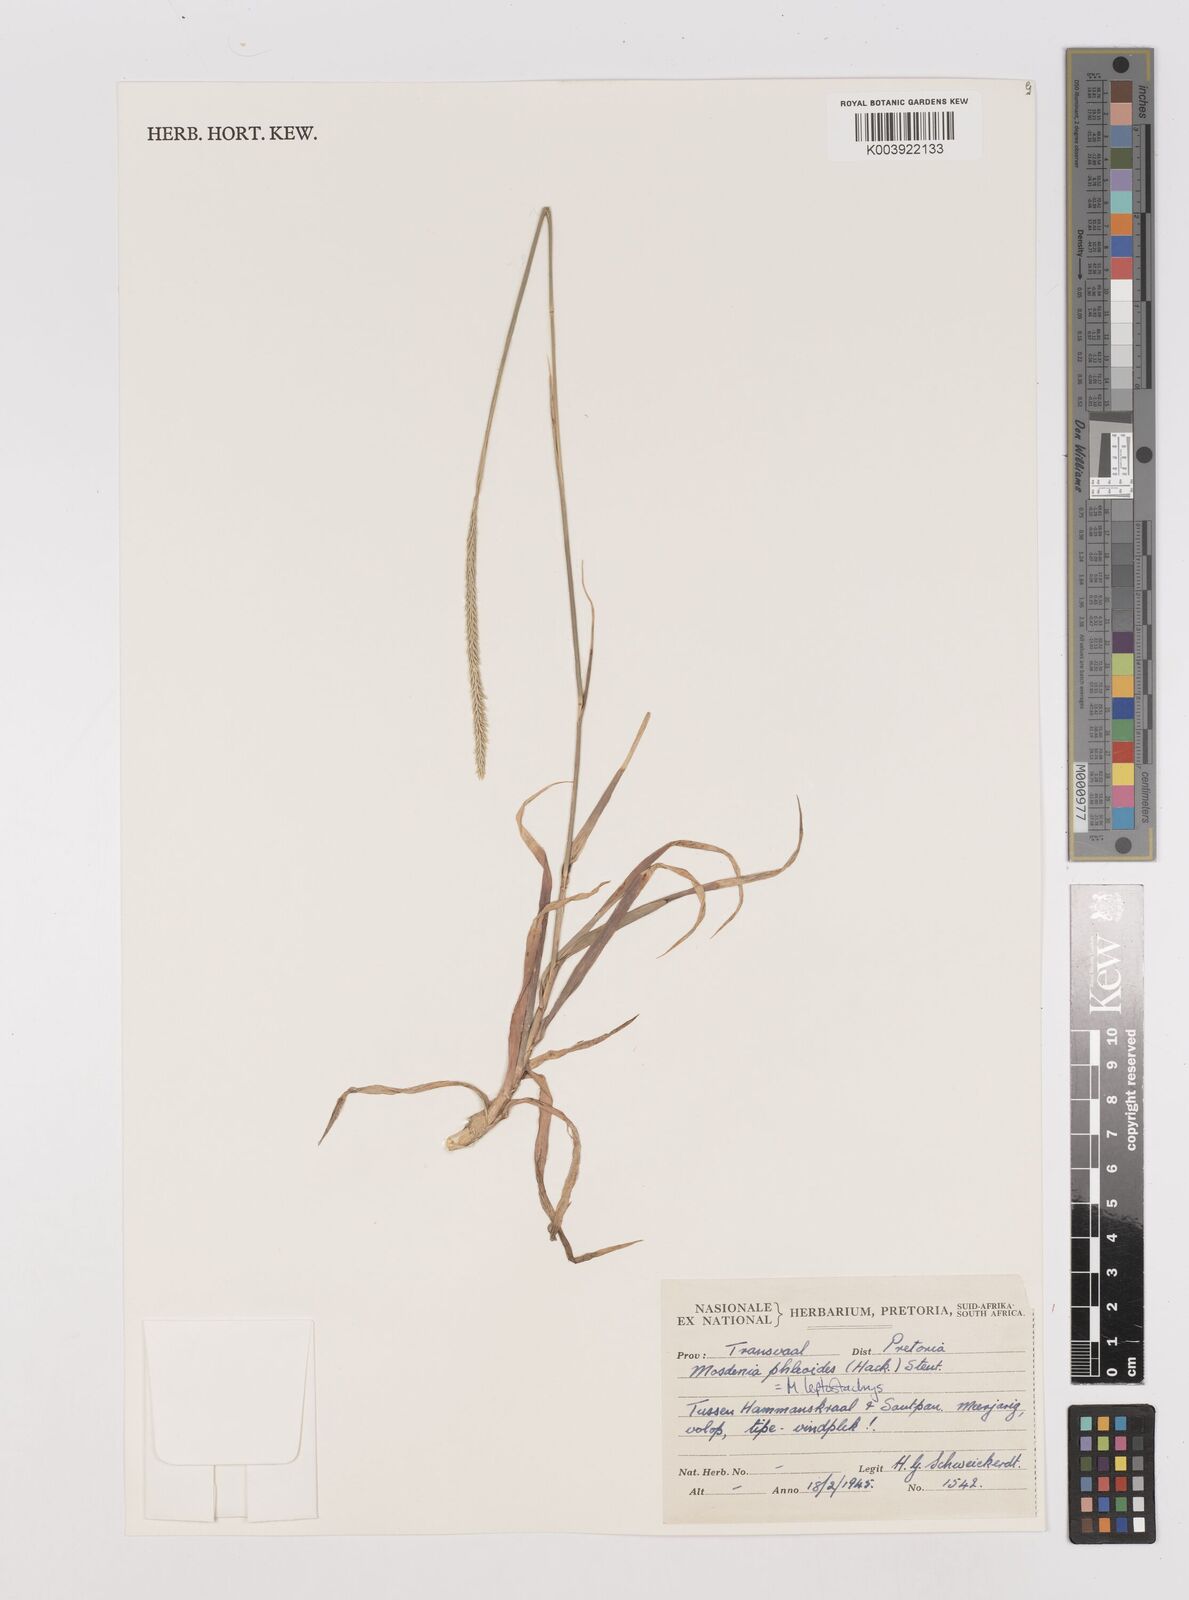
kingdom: Plantae
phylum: Tracheophyta
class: Liliopsida
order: Poales
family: Poaceae
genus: Mosdenia
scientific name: Mosdenia leptostachys
